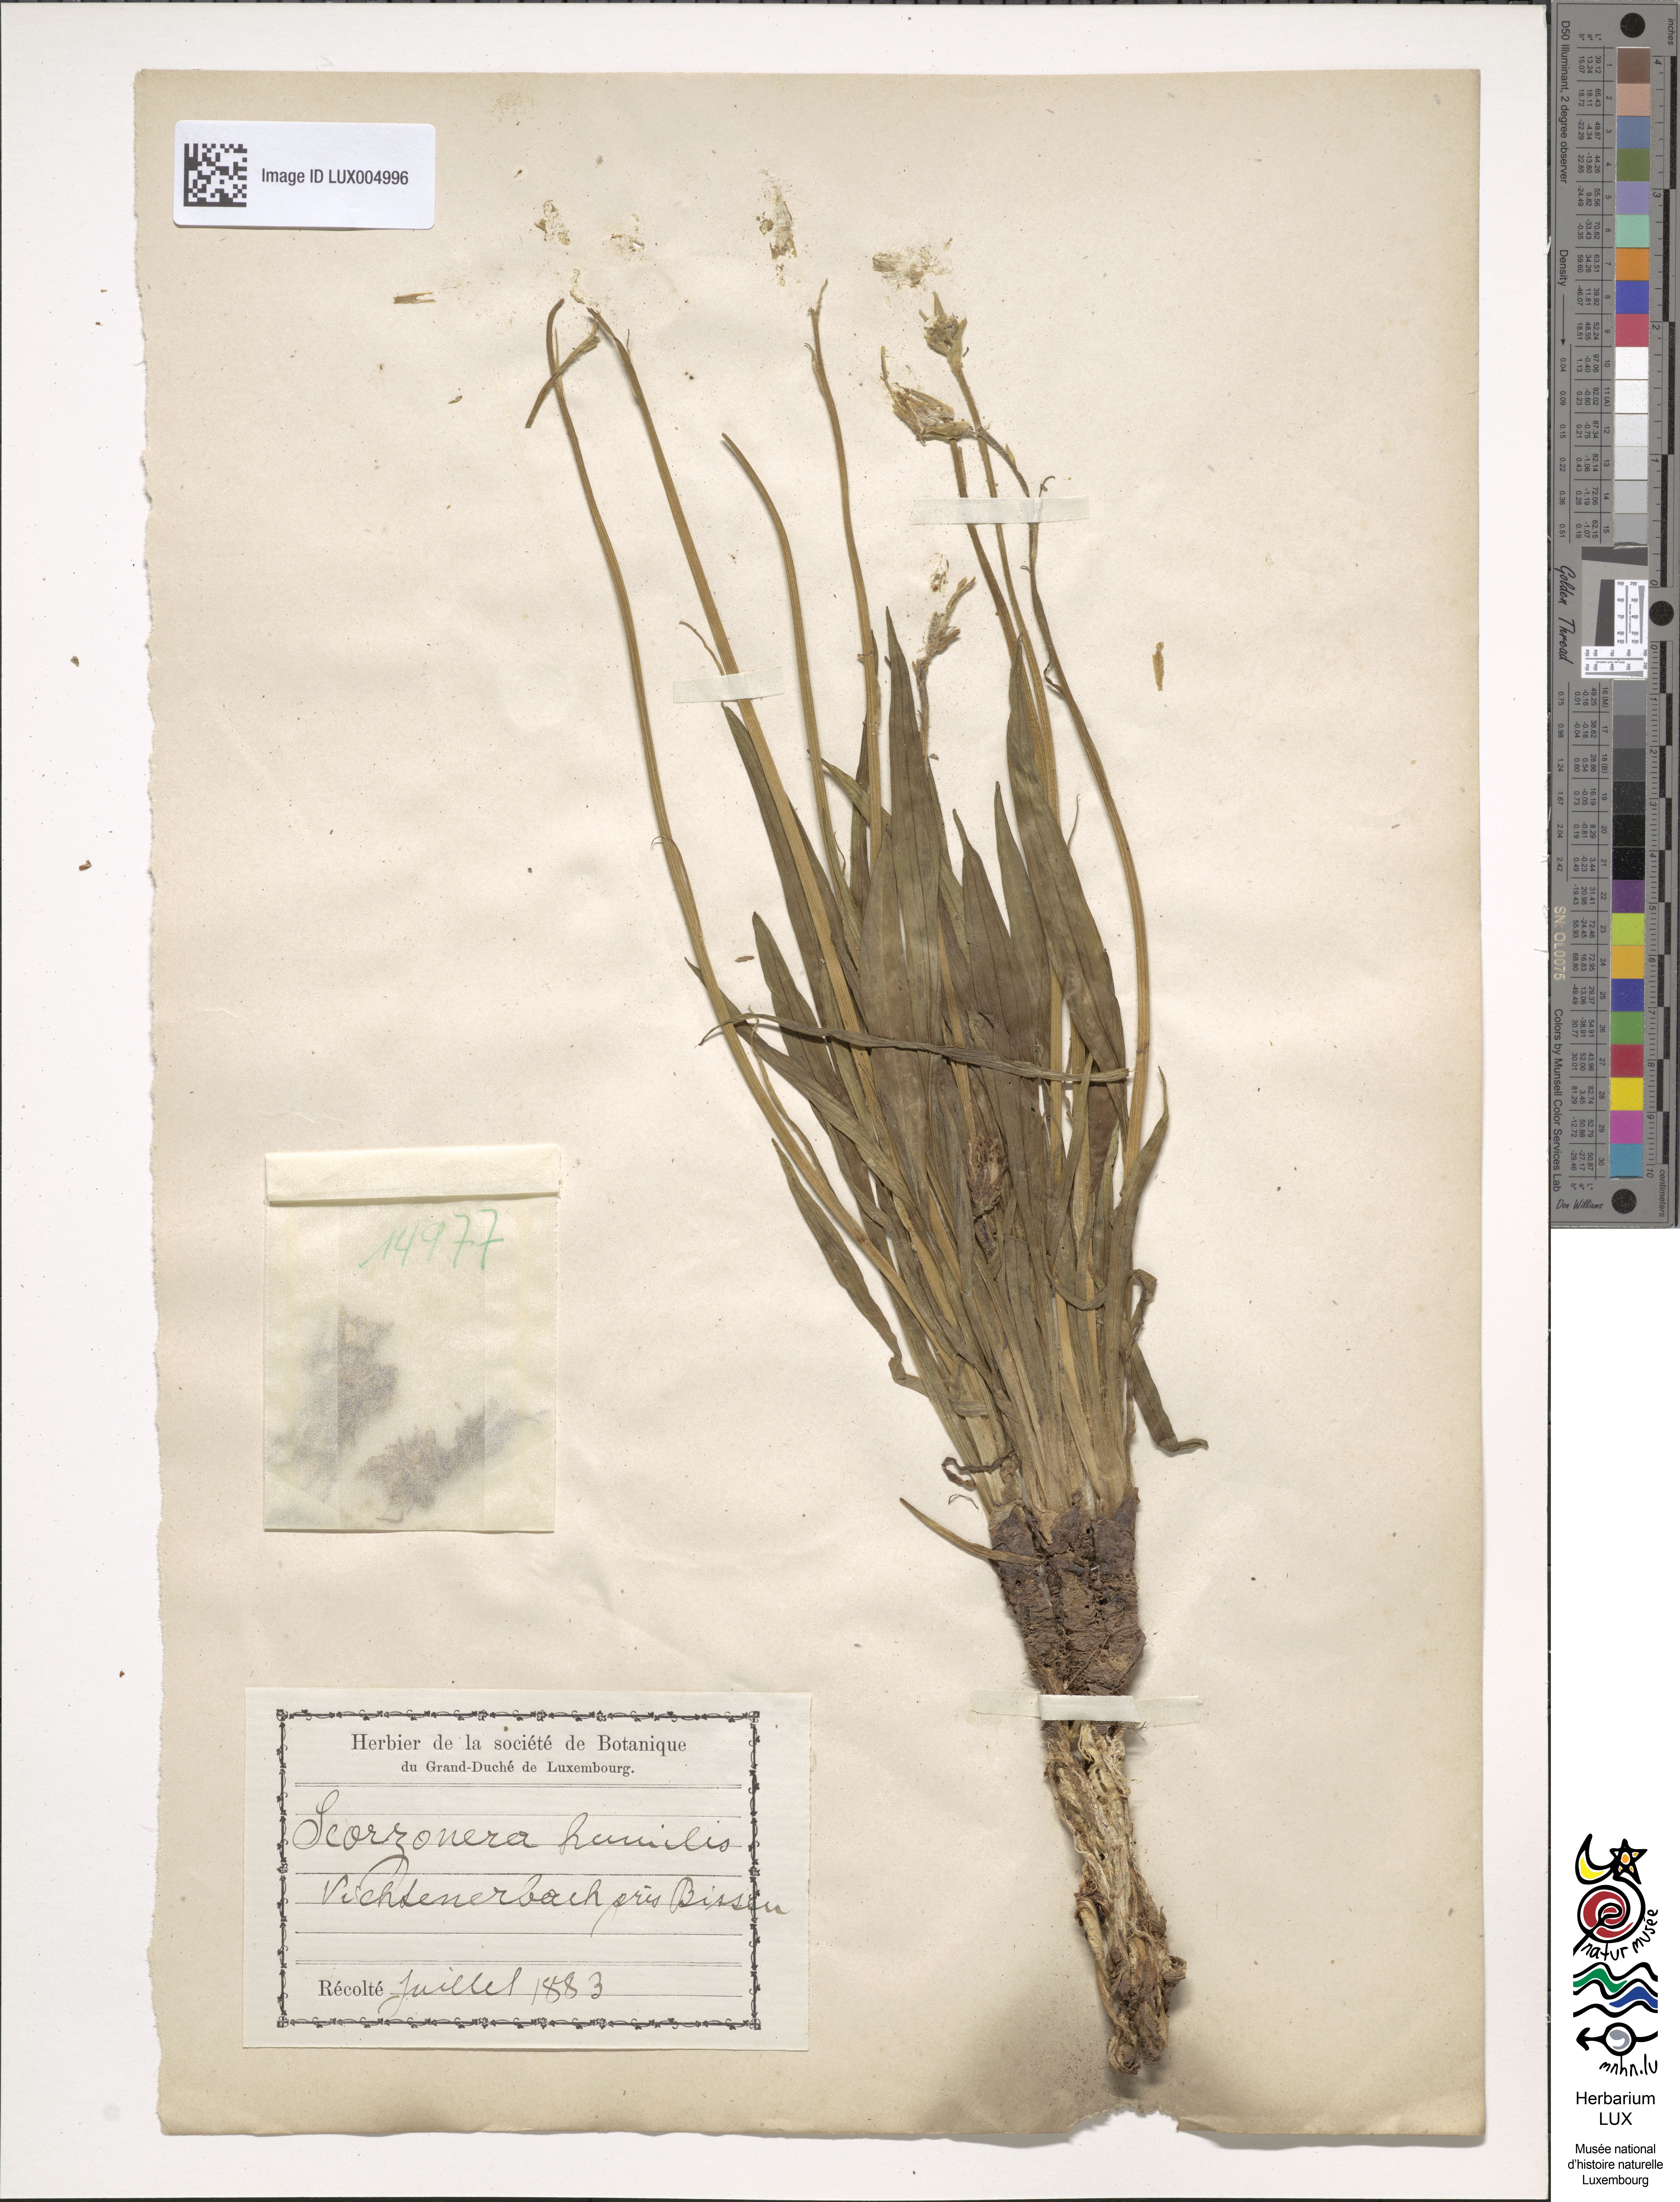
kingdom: Plantae
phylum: Tracheophyta
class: Magnoliopsida
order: Asterales
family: Asteraceae
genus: Scorzonera
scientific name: Scorzonera humilis
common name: Viper's-grass
